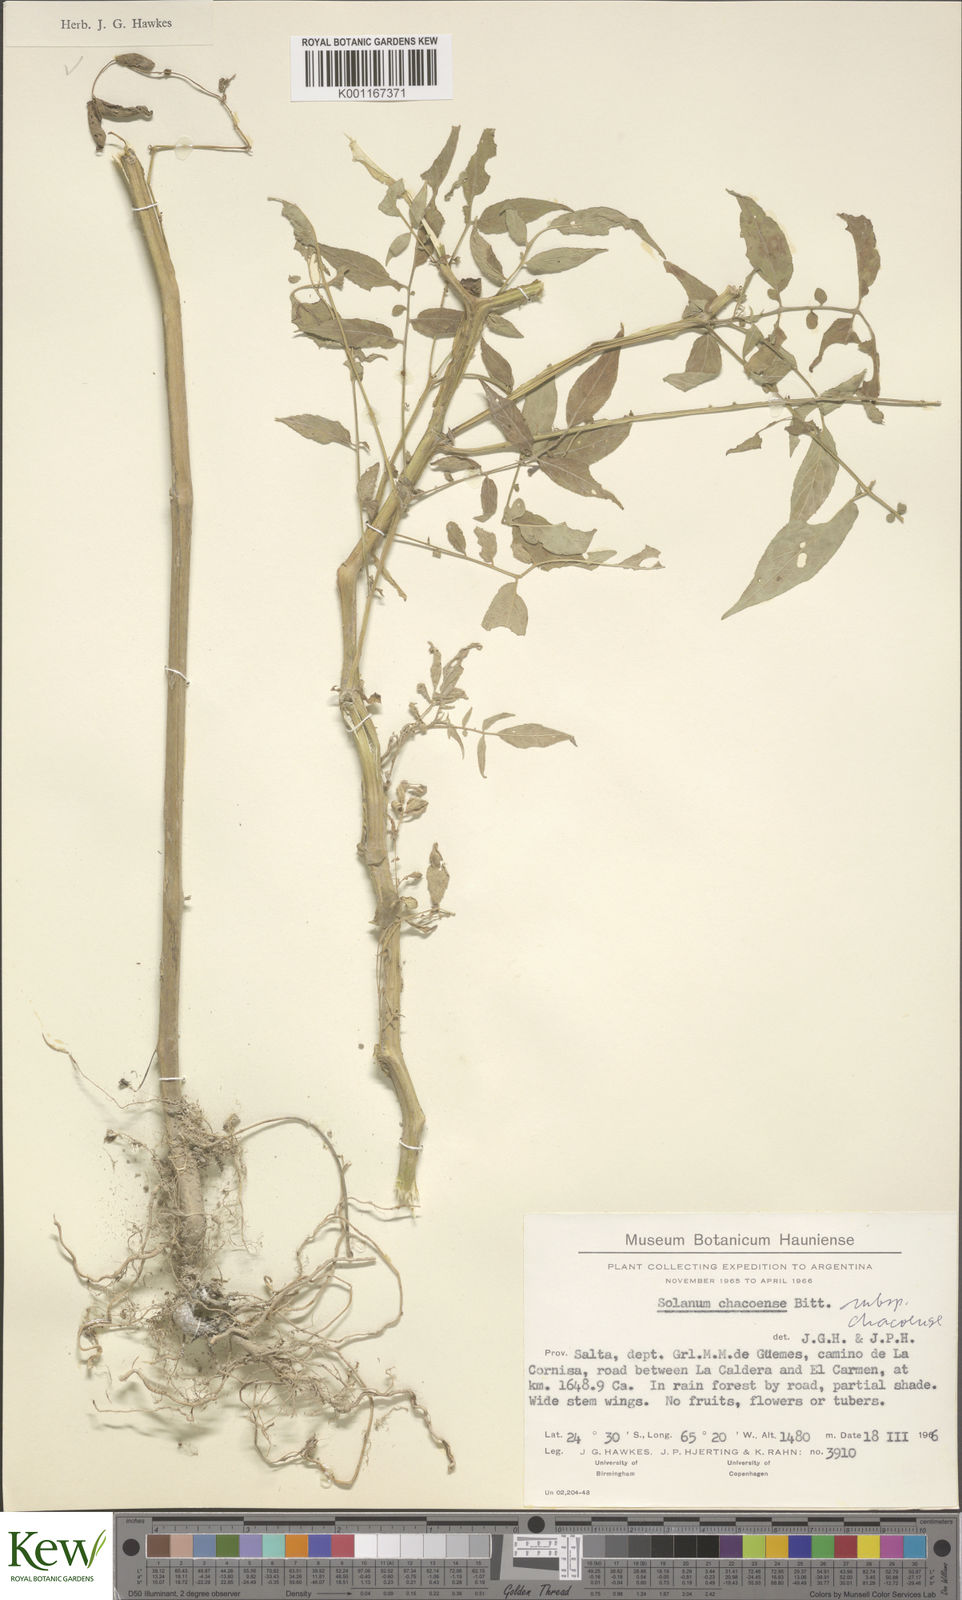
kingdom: Plantae
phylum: Tracheophyta
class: Magnoliopsida
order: Solanales
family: Solanaceae
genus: Solanum
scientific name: Solanum chacoense
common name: Chaco potato
